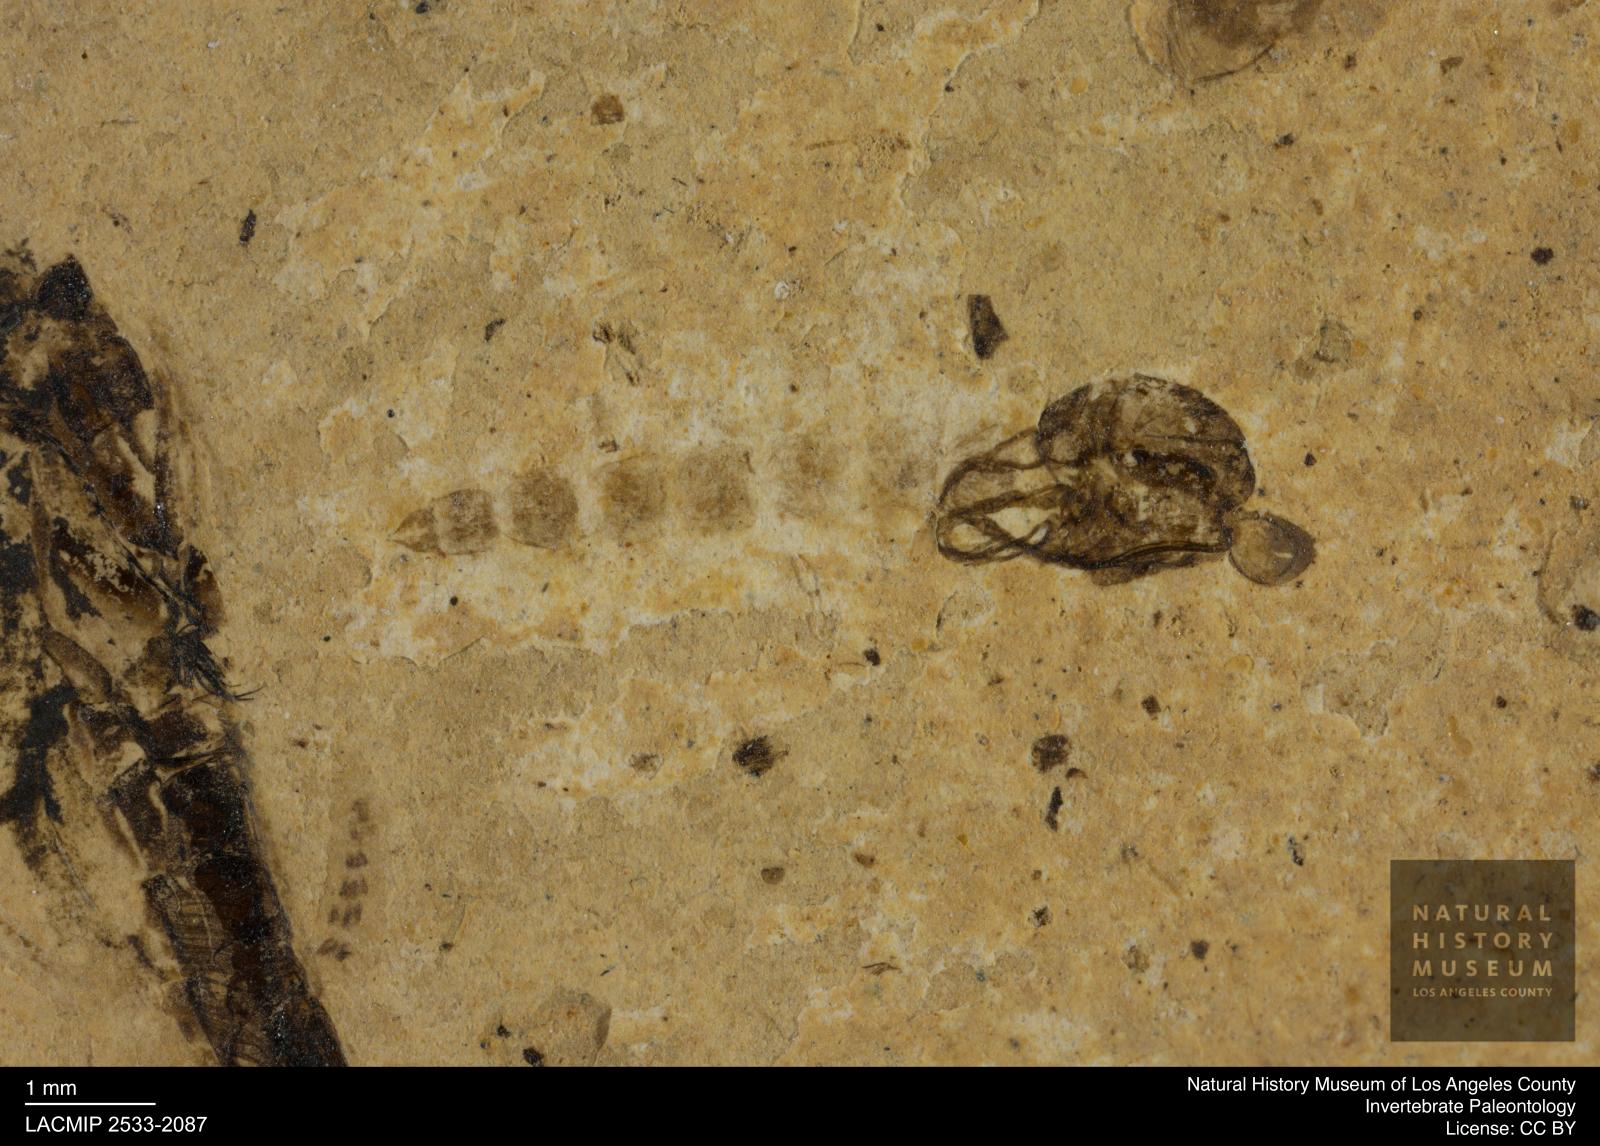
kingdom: Animalia
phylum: Arthropoda
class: Insecta
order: Diptera
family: Chironomidae
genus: Pelopiina
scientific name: Pelopiina
